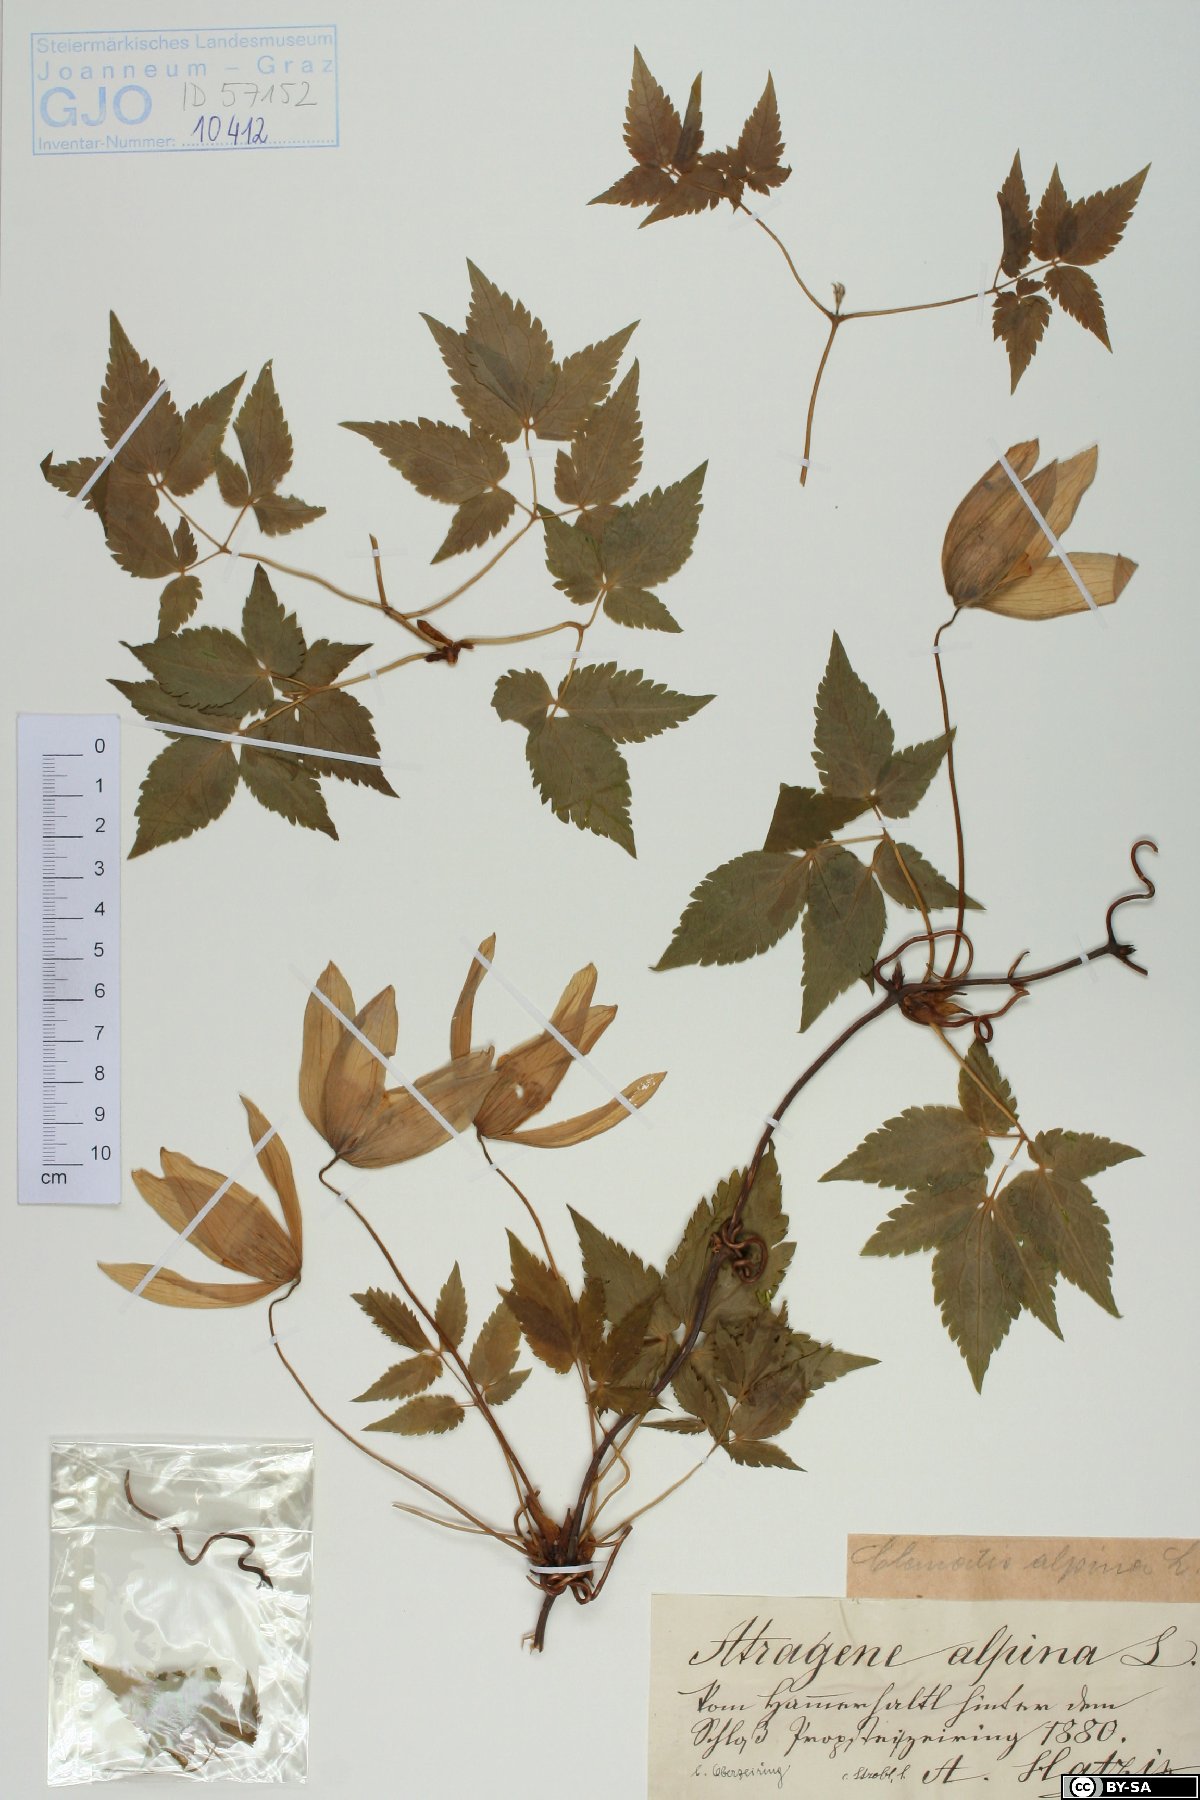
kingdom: Plantae
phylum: Tracheophyta
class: Magnoliopsida
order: Ranunculales
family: Ranunculaceae
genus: Clematis
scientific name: Clematis alpina
